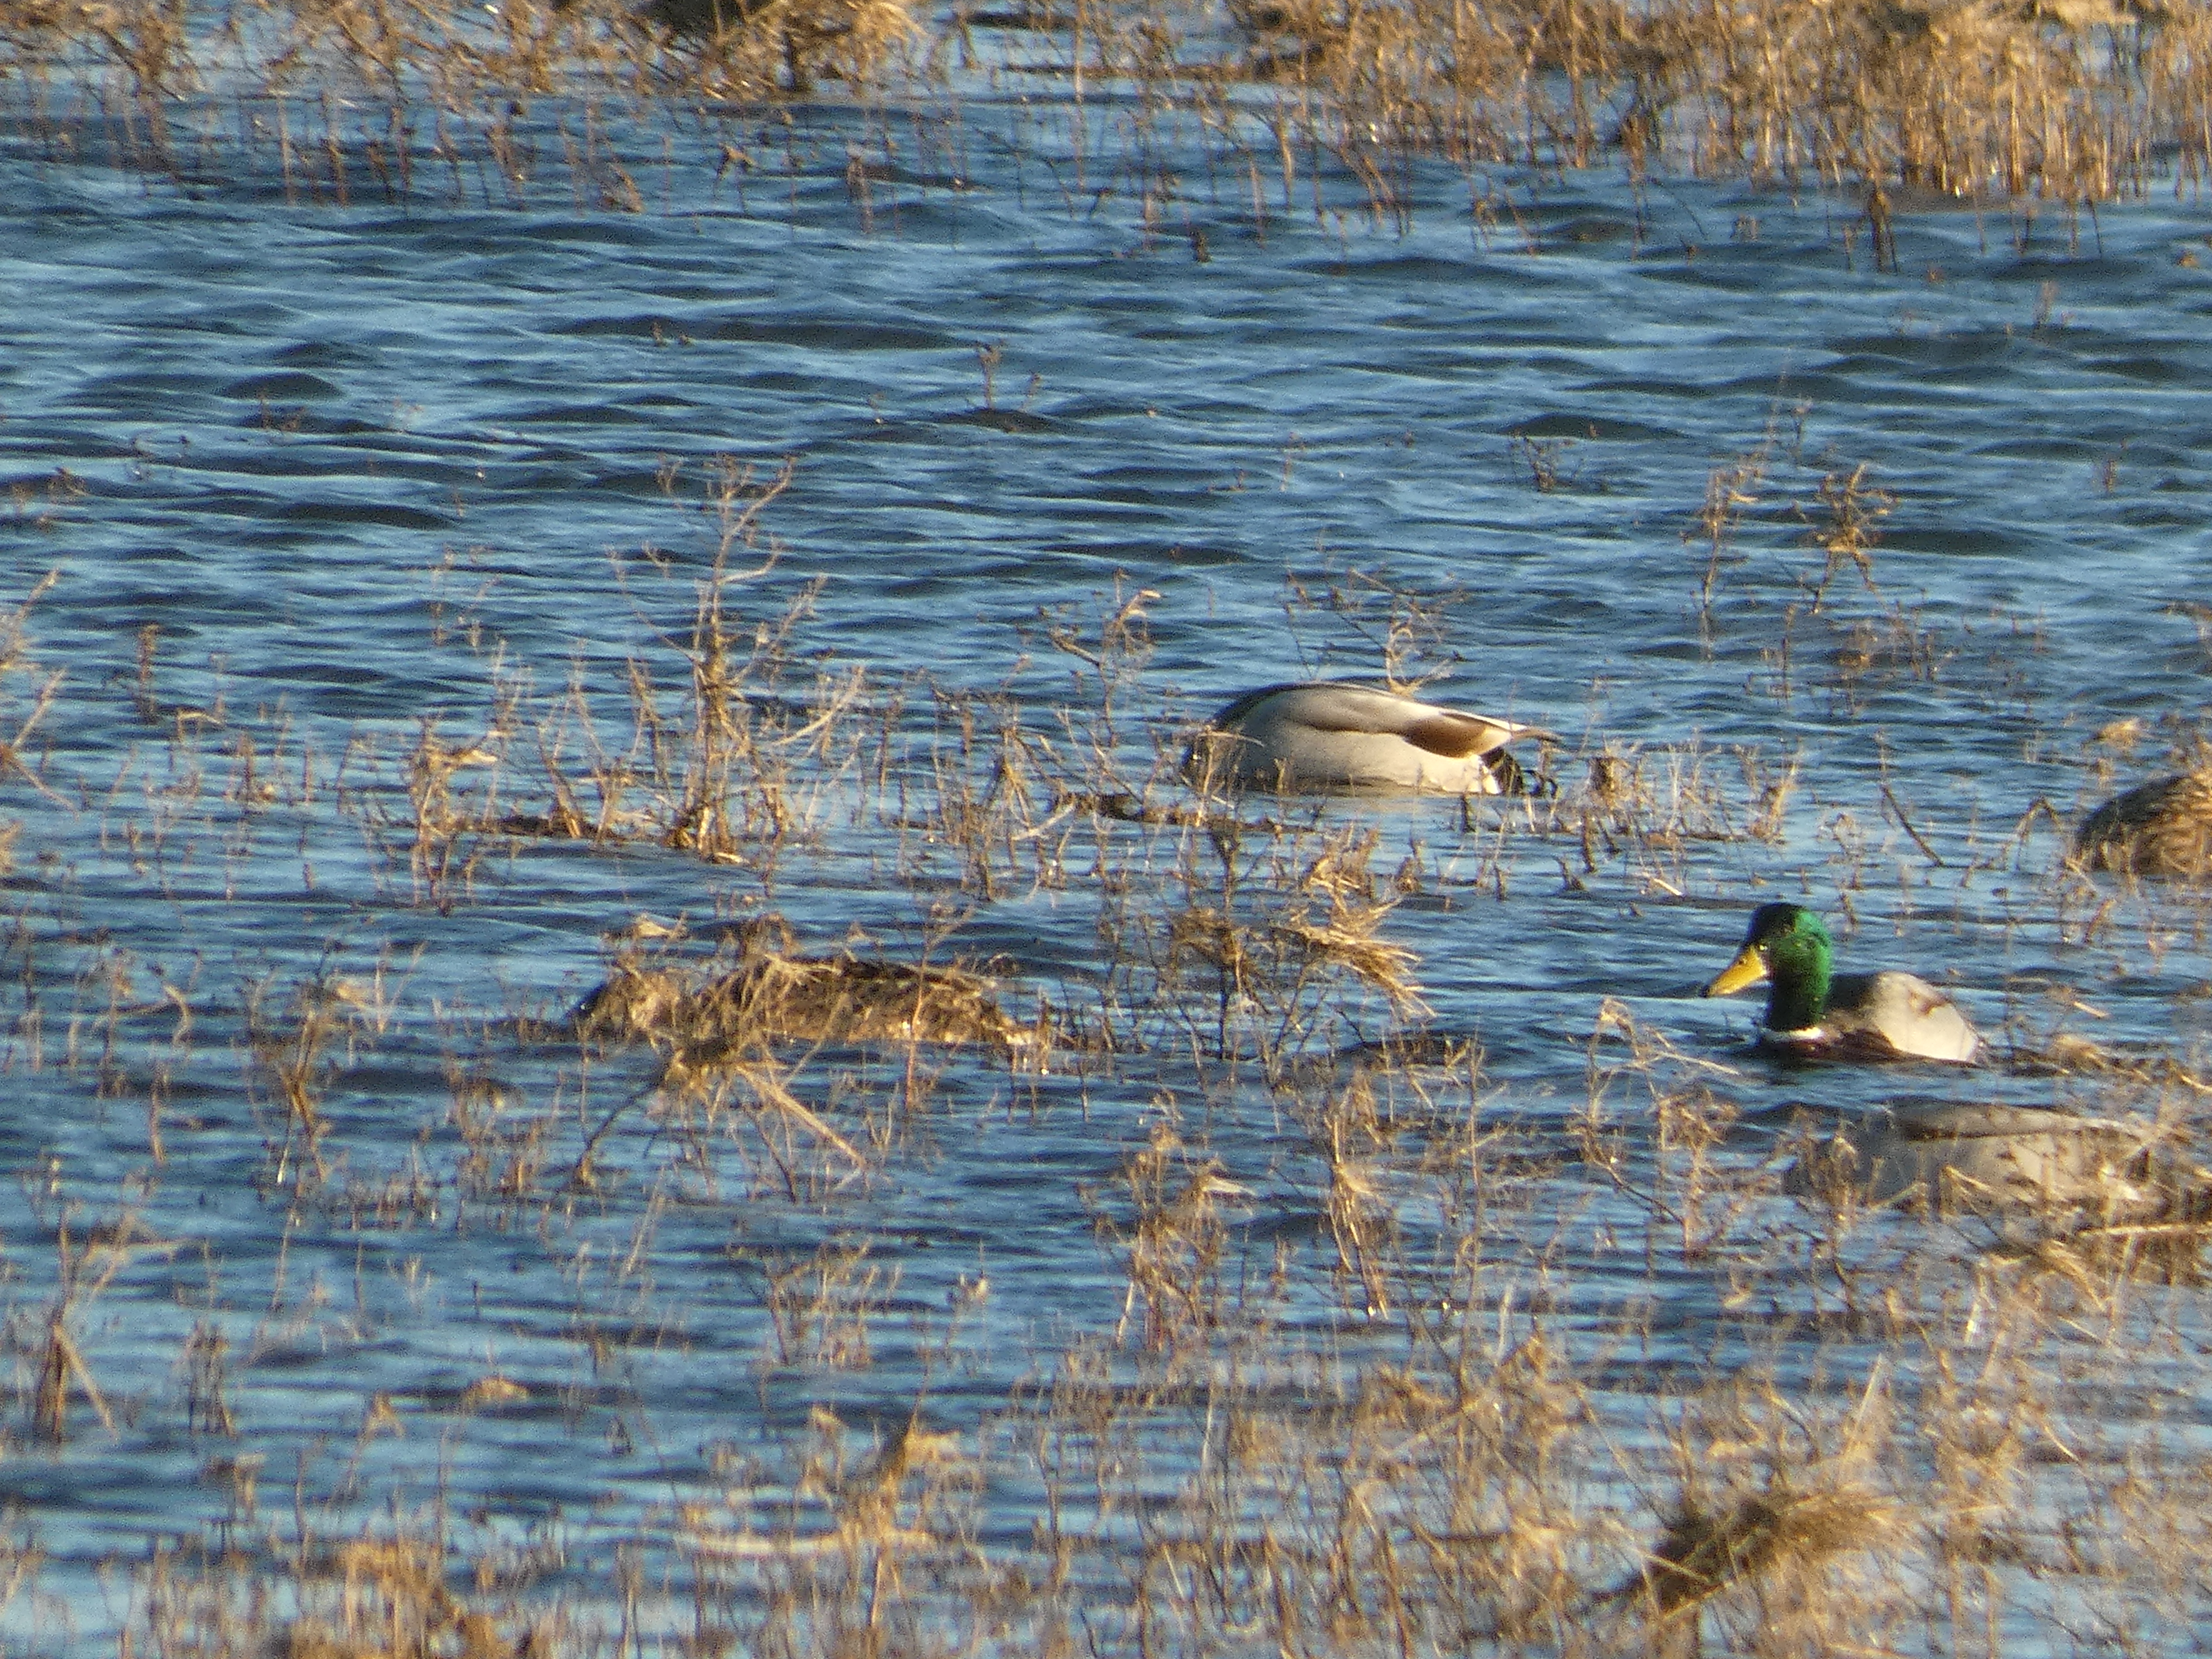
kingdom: Animalia
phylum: Chordata
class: Aves
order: Anseriformes
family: Anatidae
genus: Anas
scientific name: Anas platyrhynchos
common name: Gråand
